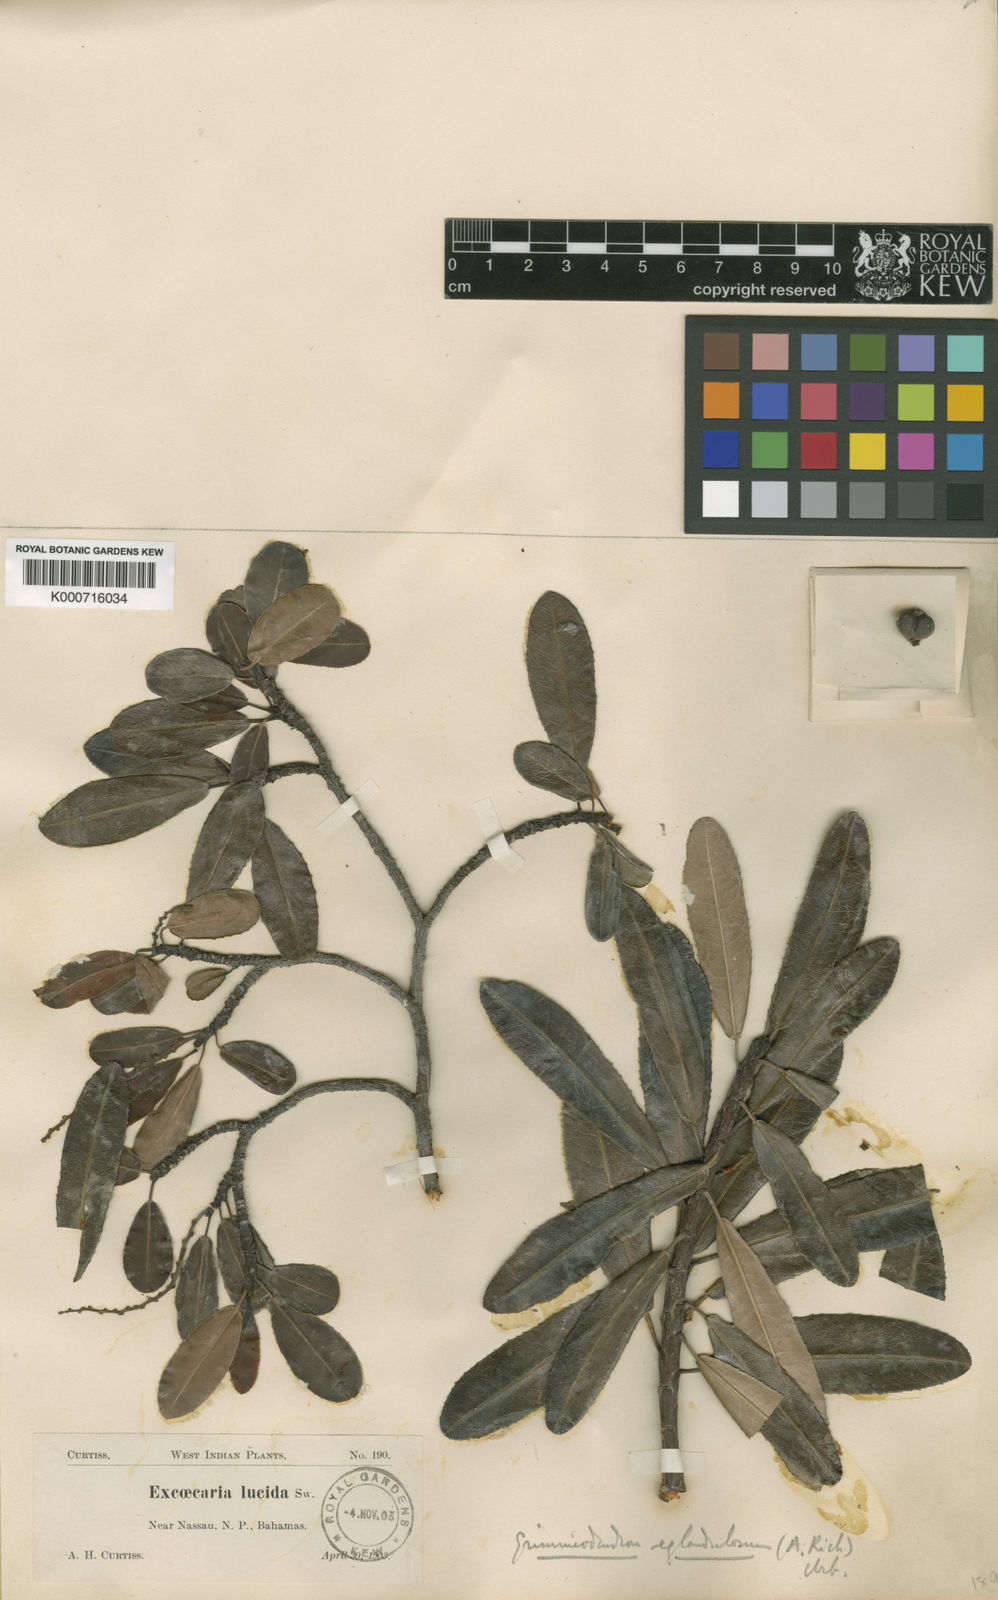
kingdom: Plantae
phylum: Tracheophyta
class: Magnoliopsida
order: Malpighiales
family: Euphorbiaceae
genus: Grimmeodendron
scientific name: Grimmeodendron eglandulosum
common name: Grimm’s tree
